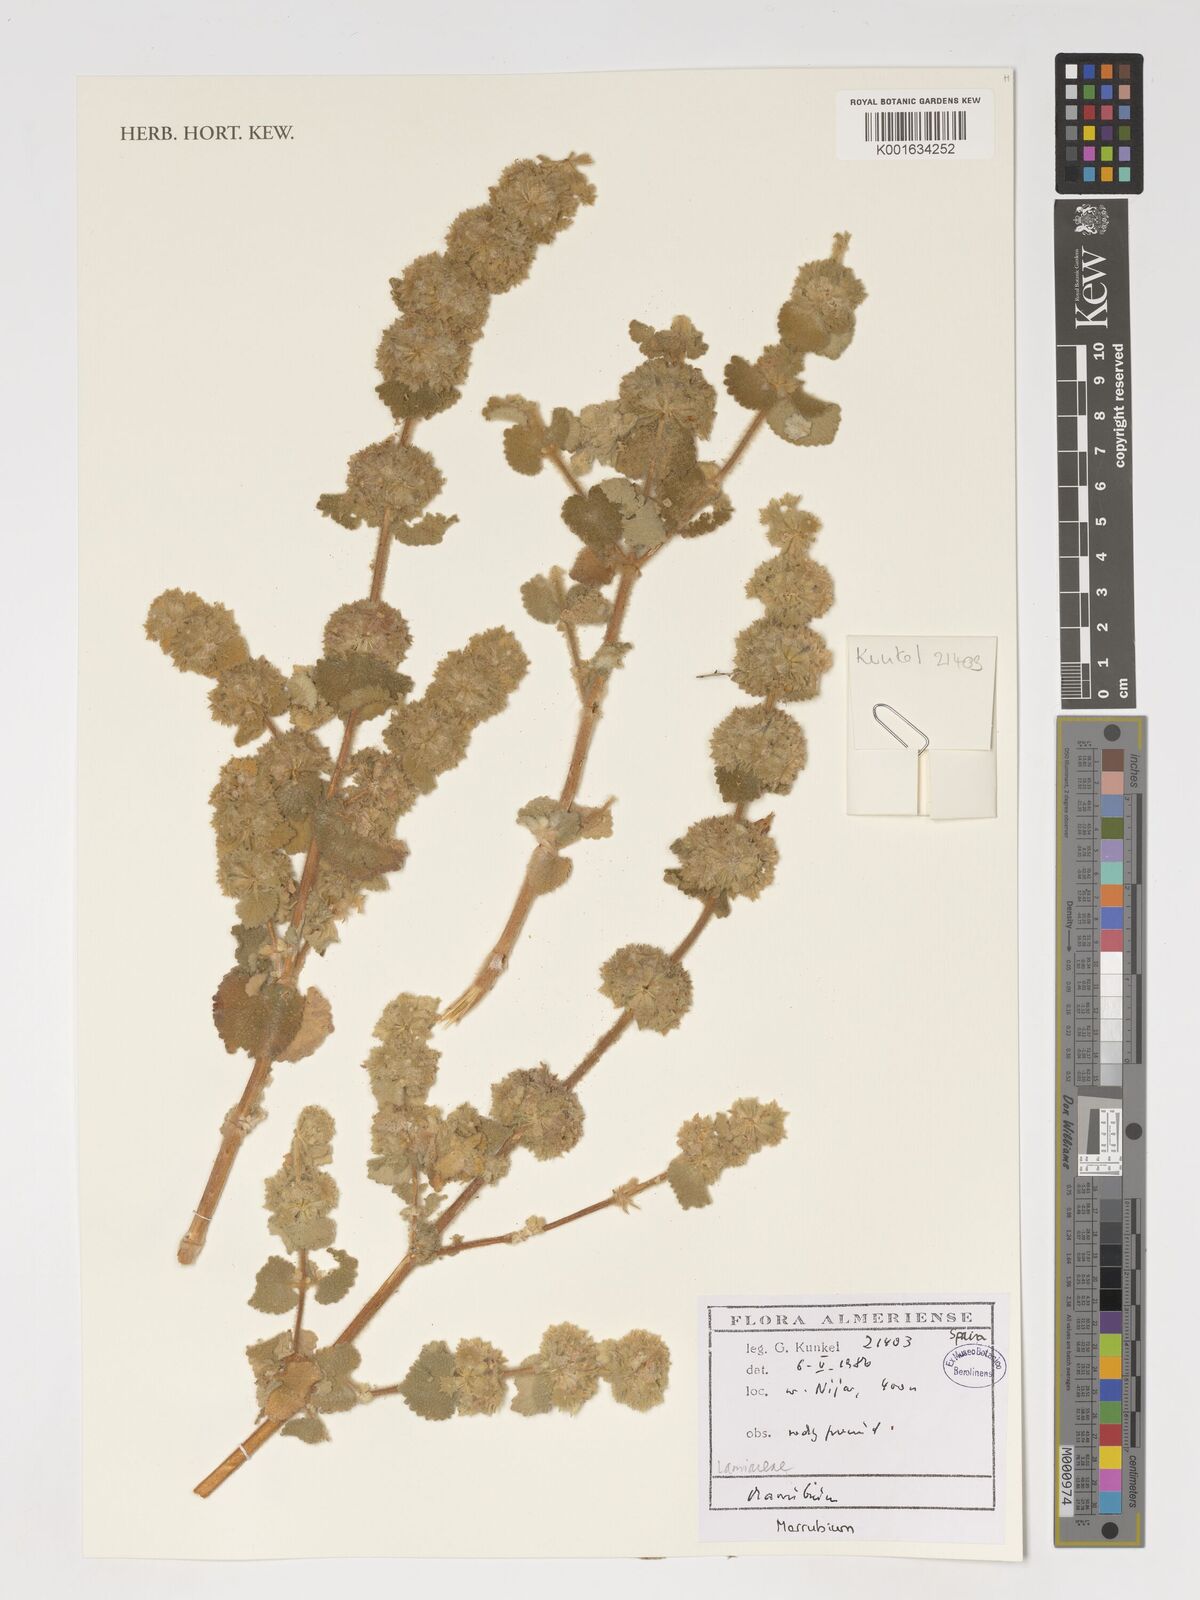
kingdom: Plantae
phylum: Tracheophyta
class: Magnoliopsida
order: Lamiales
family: Lamiaceae
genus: Marrubium
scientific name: Marrubium
